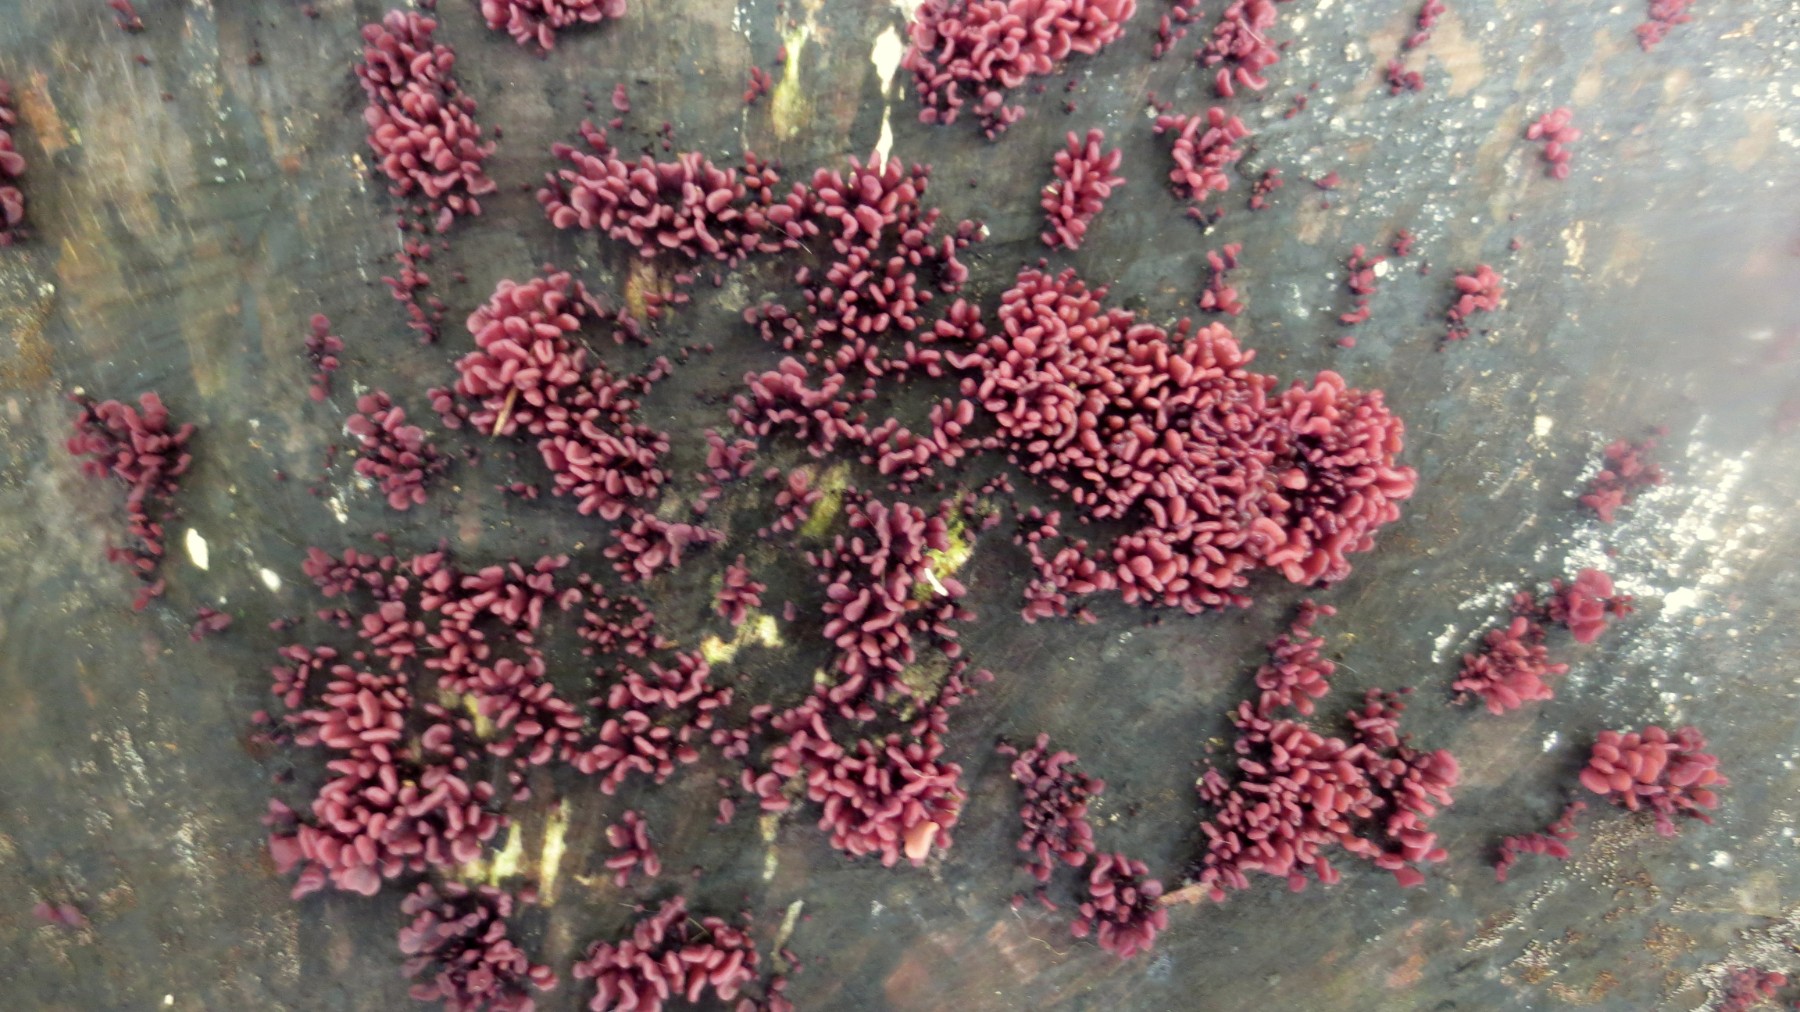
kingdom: Fungi
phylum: Ascomycota
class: Leotiomycetes
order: Helotiales
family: Gelatinodiscaceae
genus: Ascocoryne
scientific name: Ascocoryne sarcoides
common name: rødlilla sejskive
